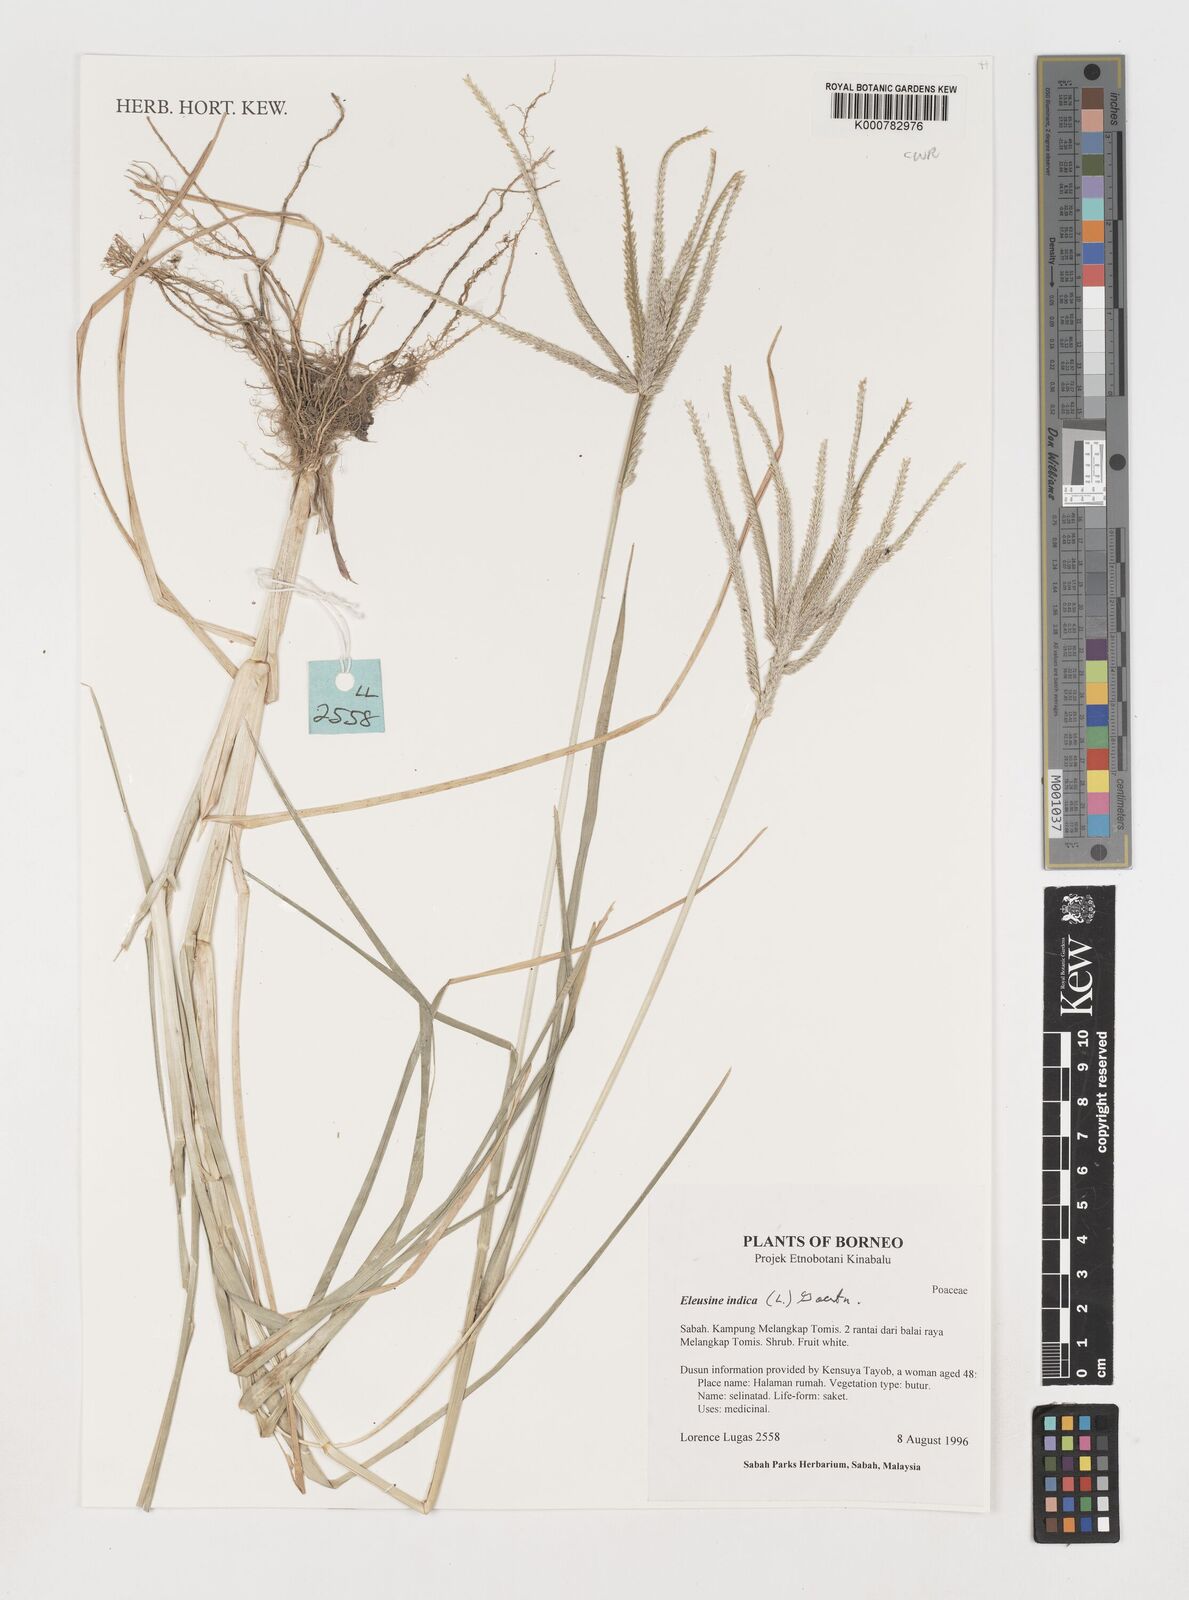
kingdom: Plantae
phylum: Tracheophyta
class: Liliopsida
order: Poales
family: Poaceae
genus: Eleusine
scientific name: Eleusine indica
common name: Yard-grass
